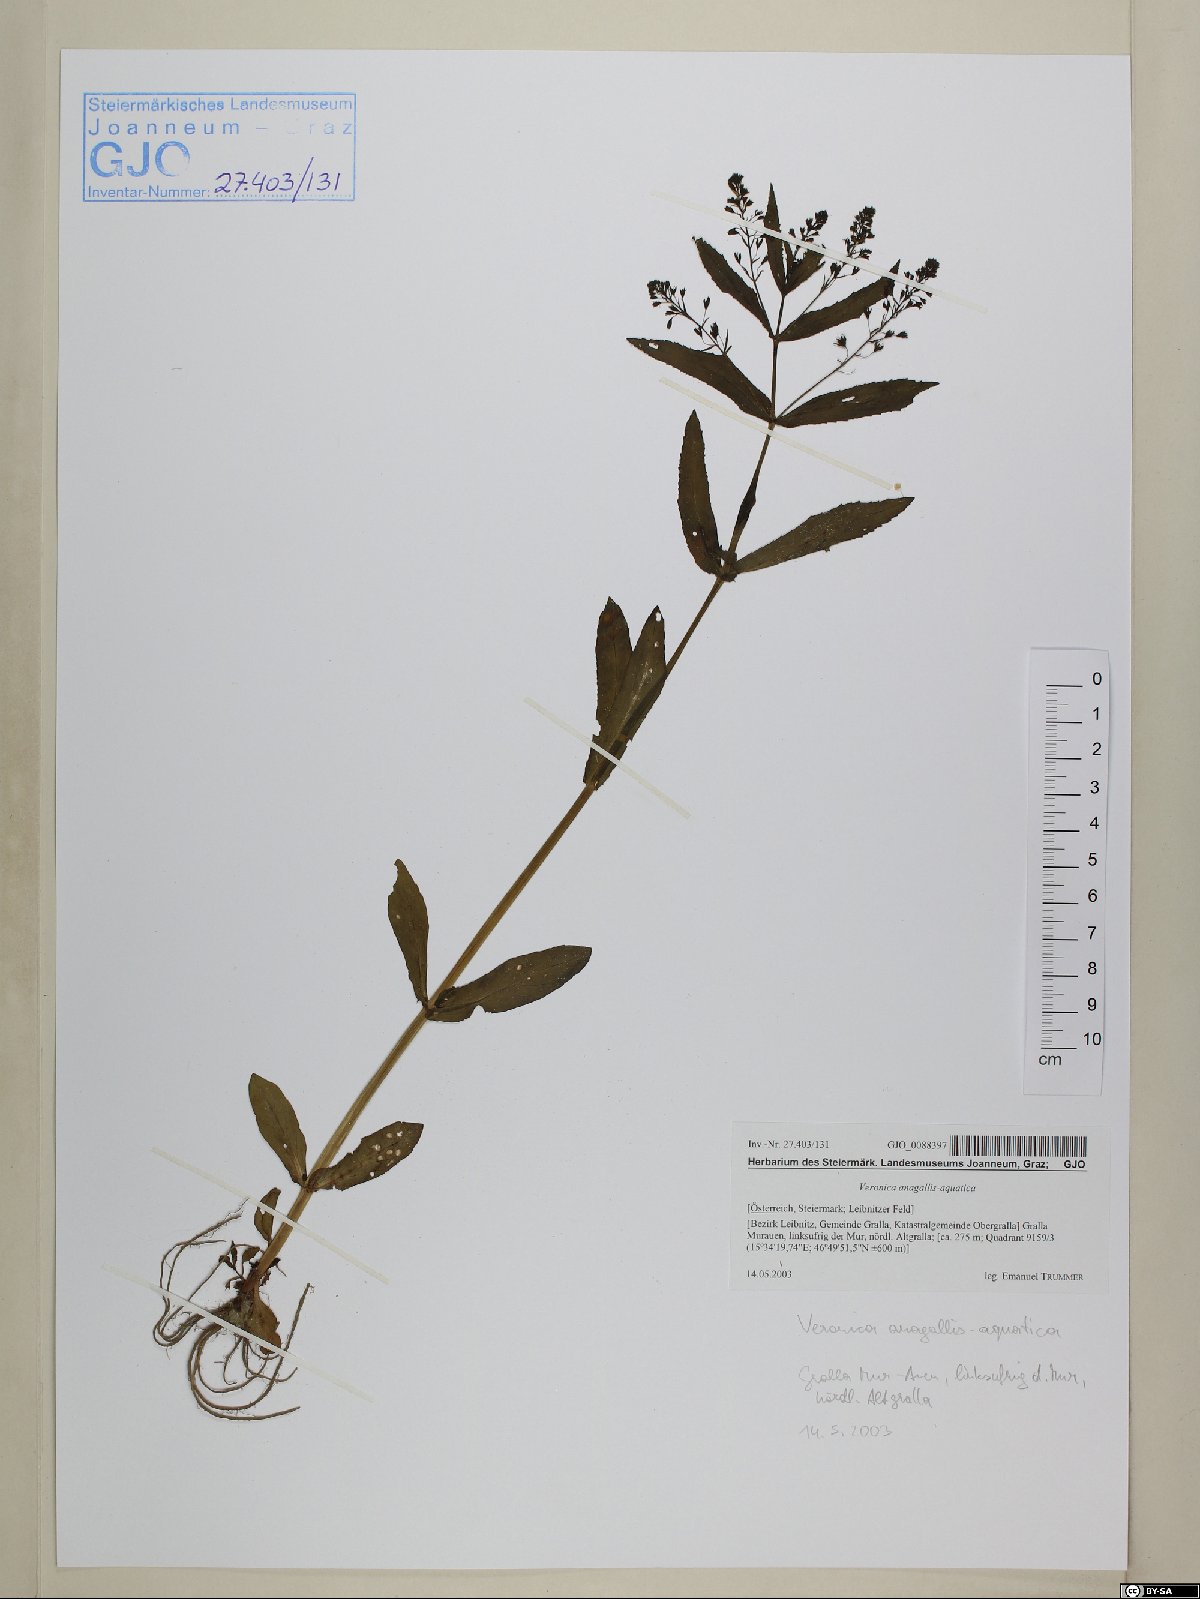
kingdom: Plantae
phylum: Tracheophyta
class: Magnoliopsida
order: Lamiales
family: Plantaginaceae
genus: Veronica
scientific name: Veronica anagallis-aquatica
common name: Water speedwell
